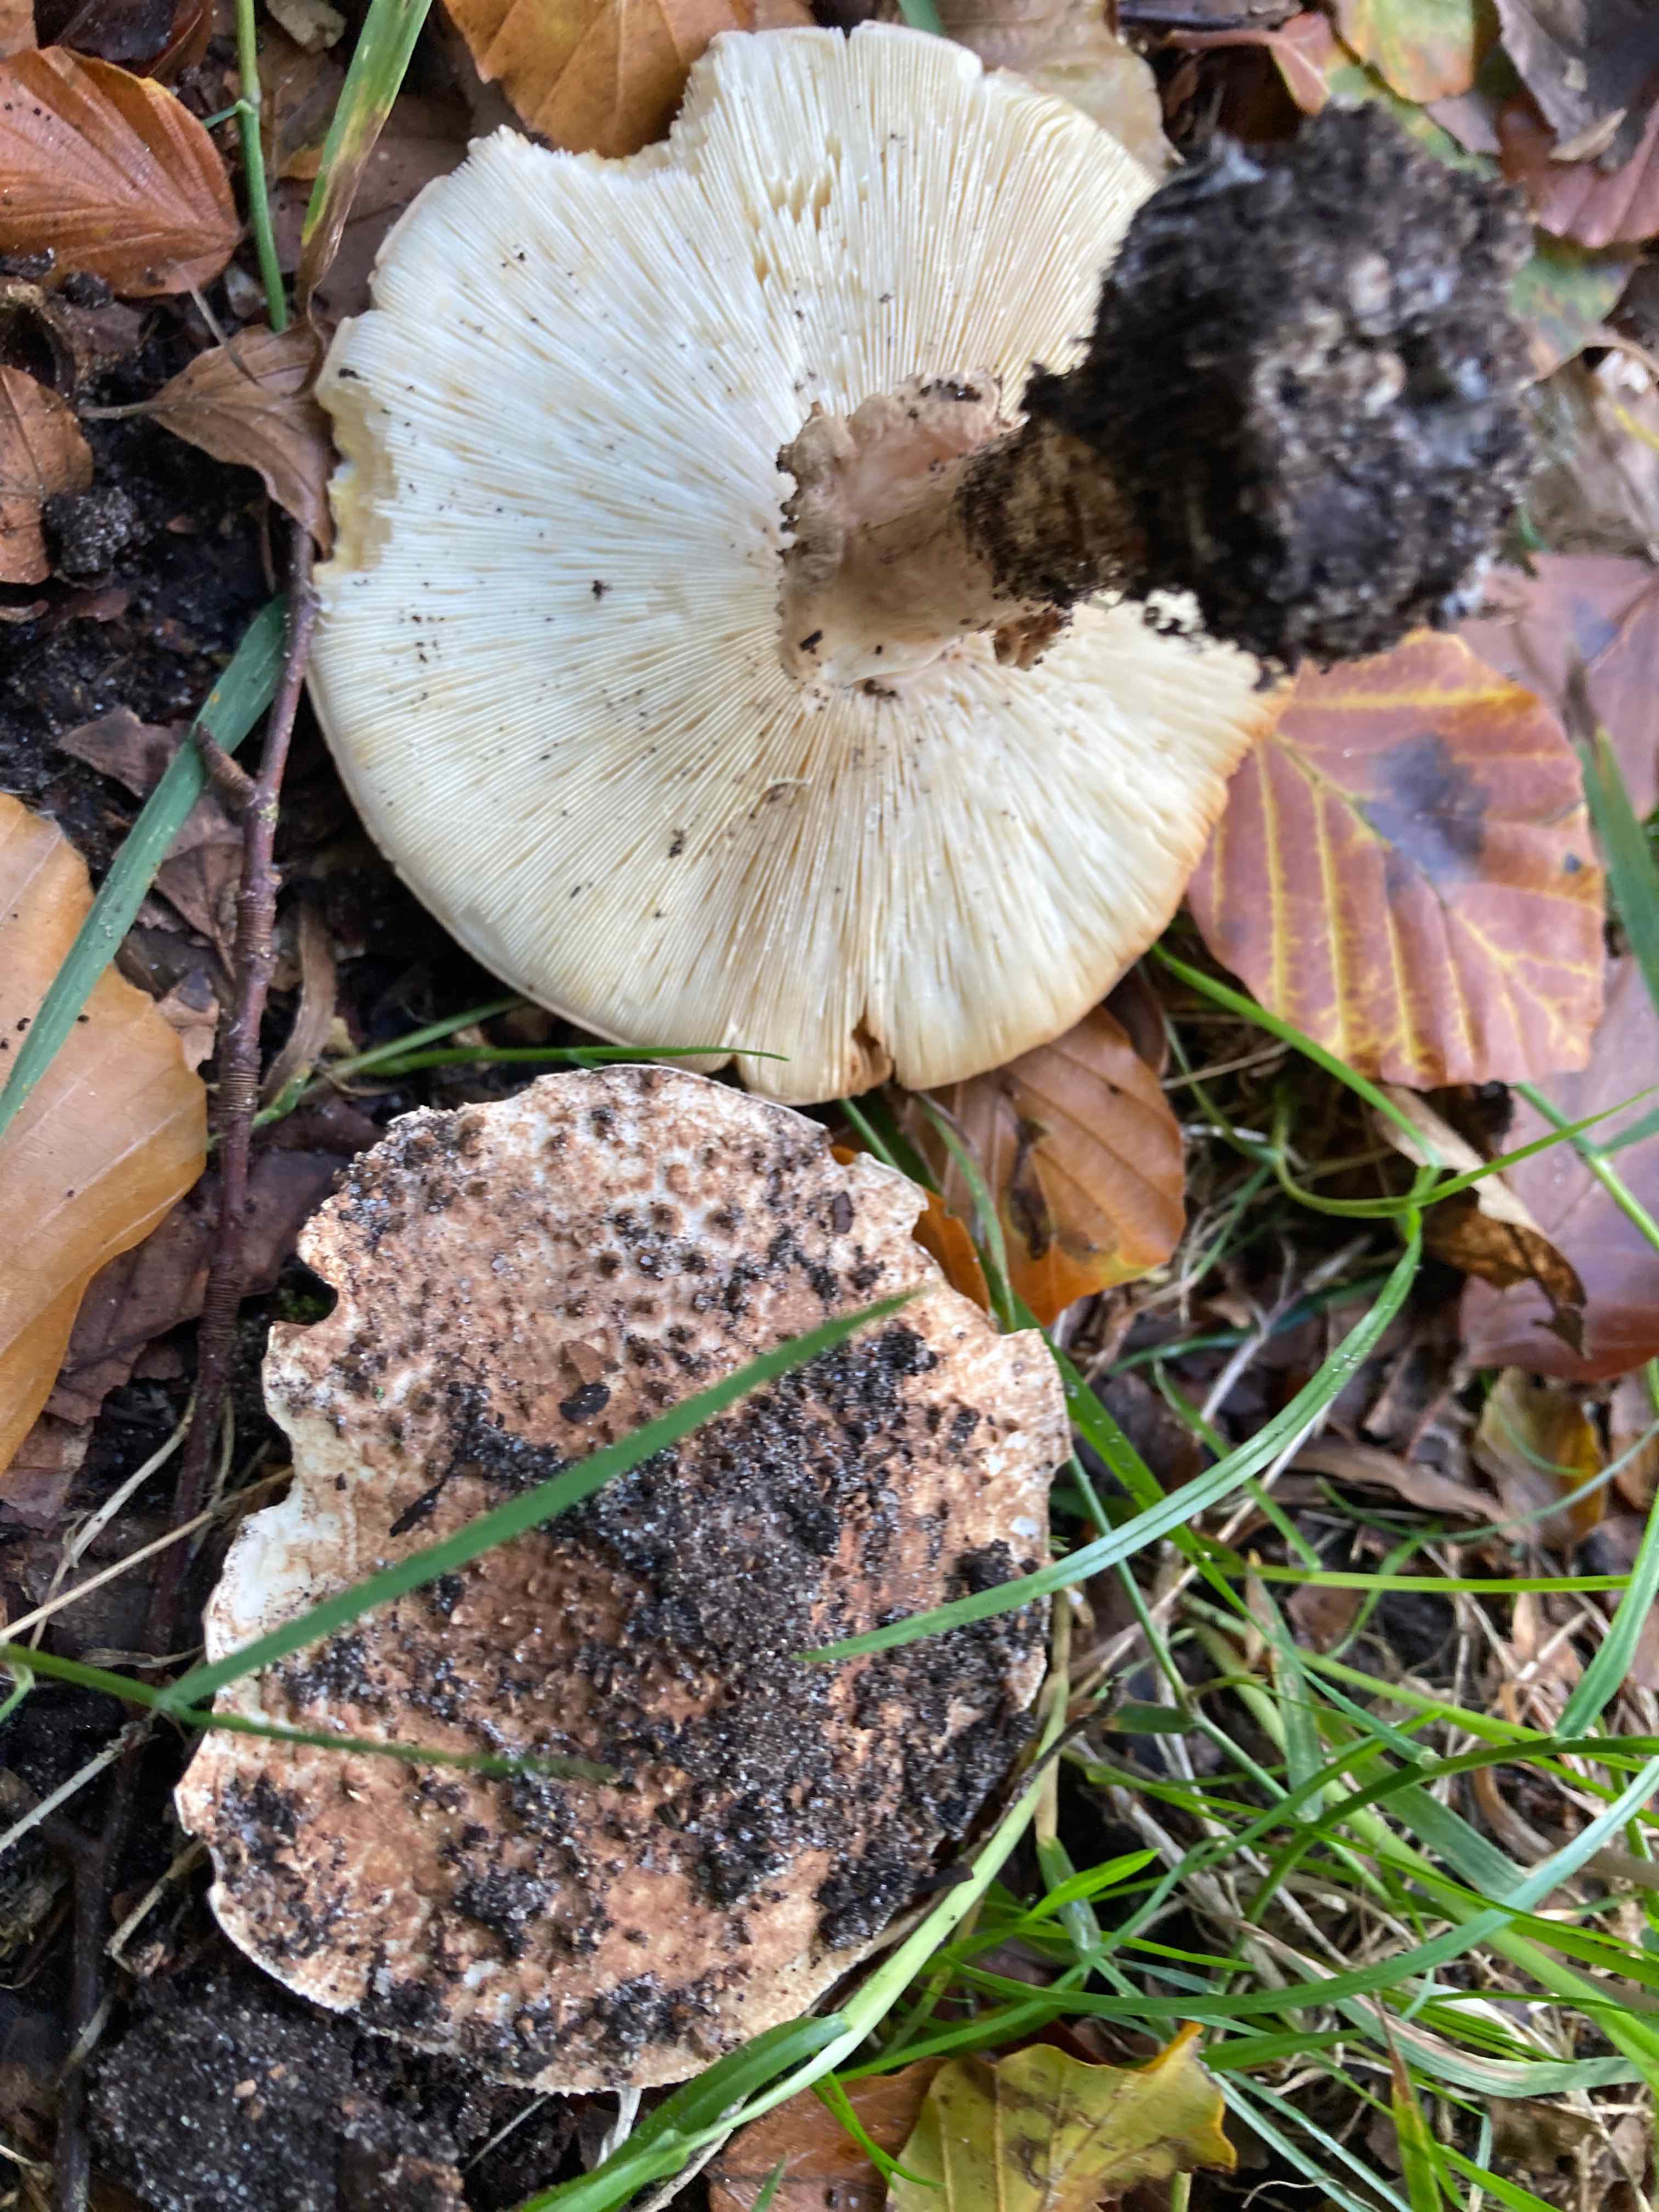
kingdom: Fungi
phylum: Basidiomycota
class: Agaricomycetes
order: Agaricales
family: Agaricaceae
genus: Echinoderma
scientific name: Echinoderma asperum
